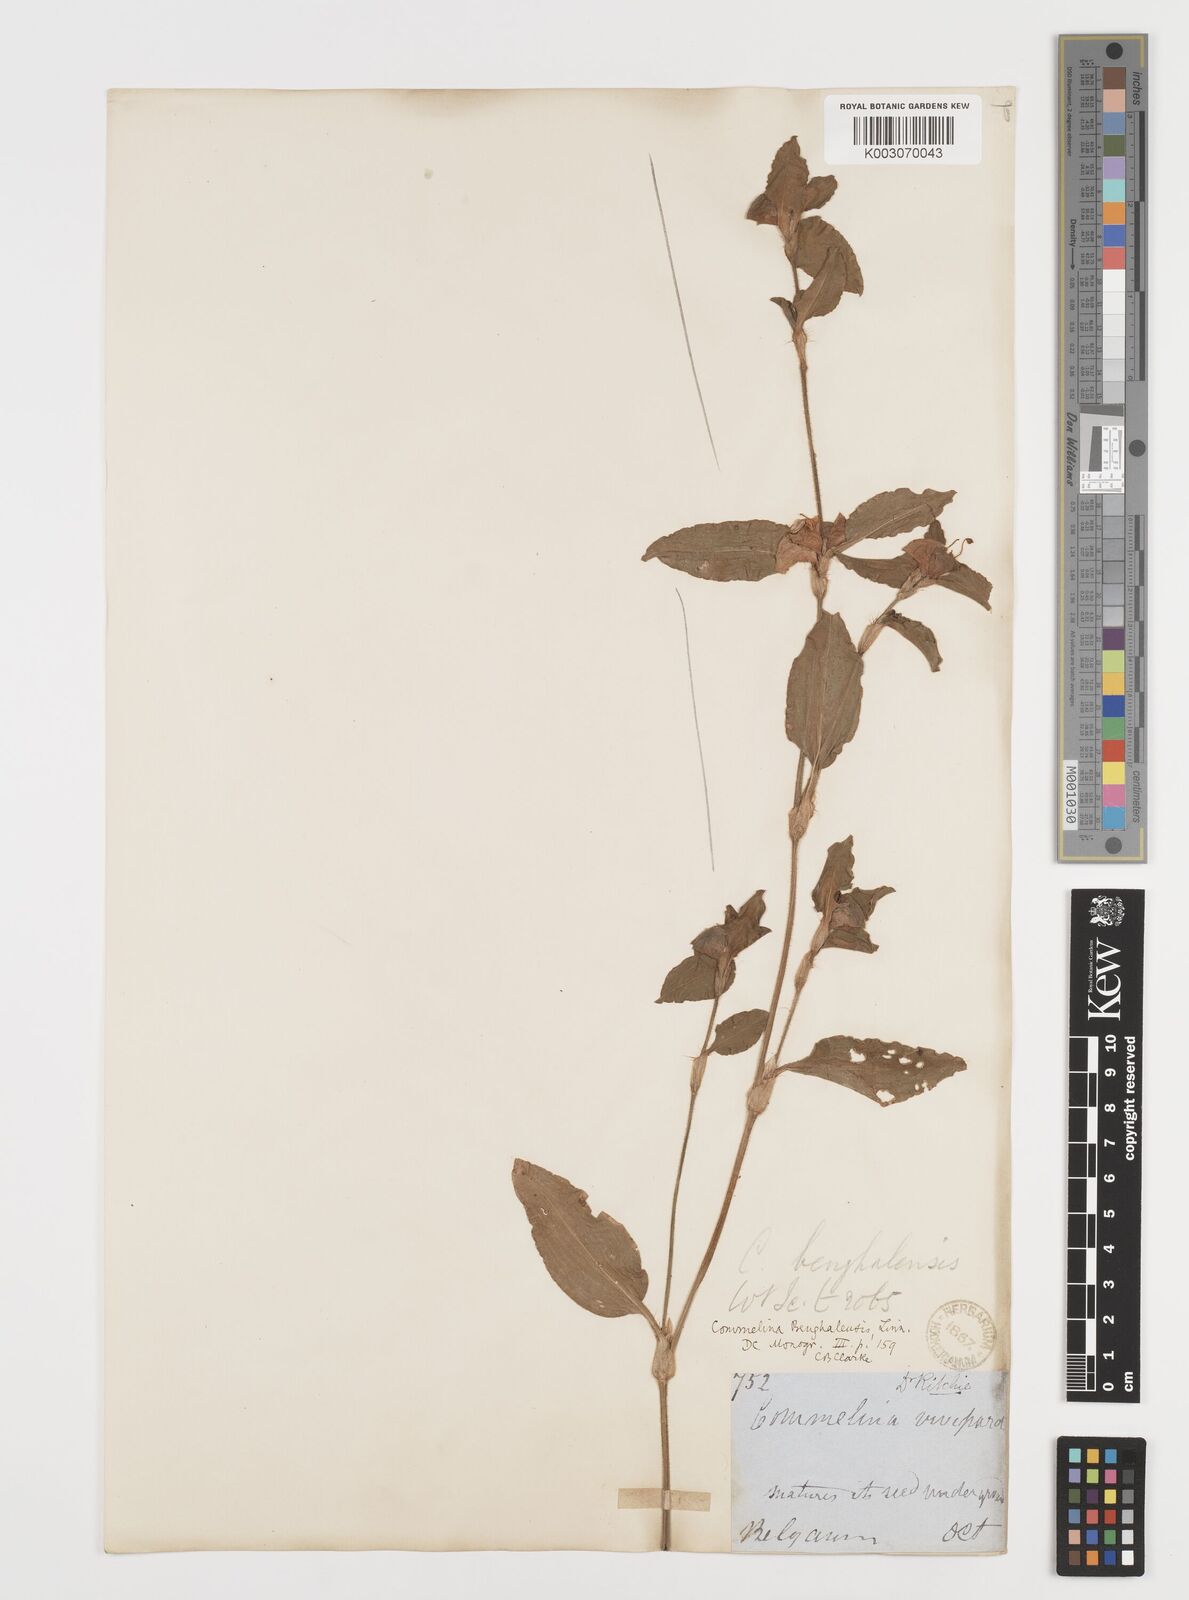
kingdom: Plantae
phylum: Tracheophyta
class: Liliopsida
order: Commelinales
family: Commelinaceae
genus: Commelina
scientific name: Commelina benghalensis
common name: Jio
